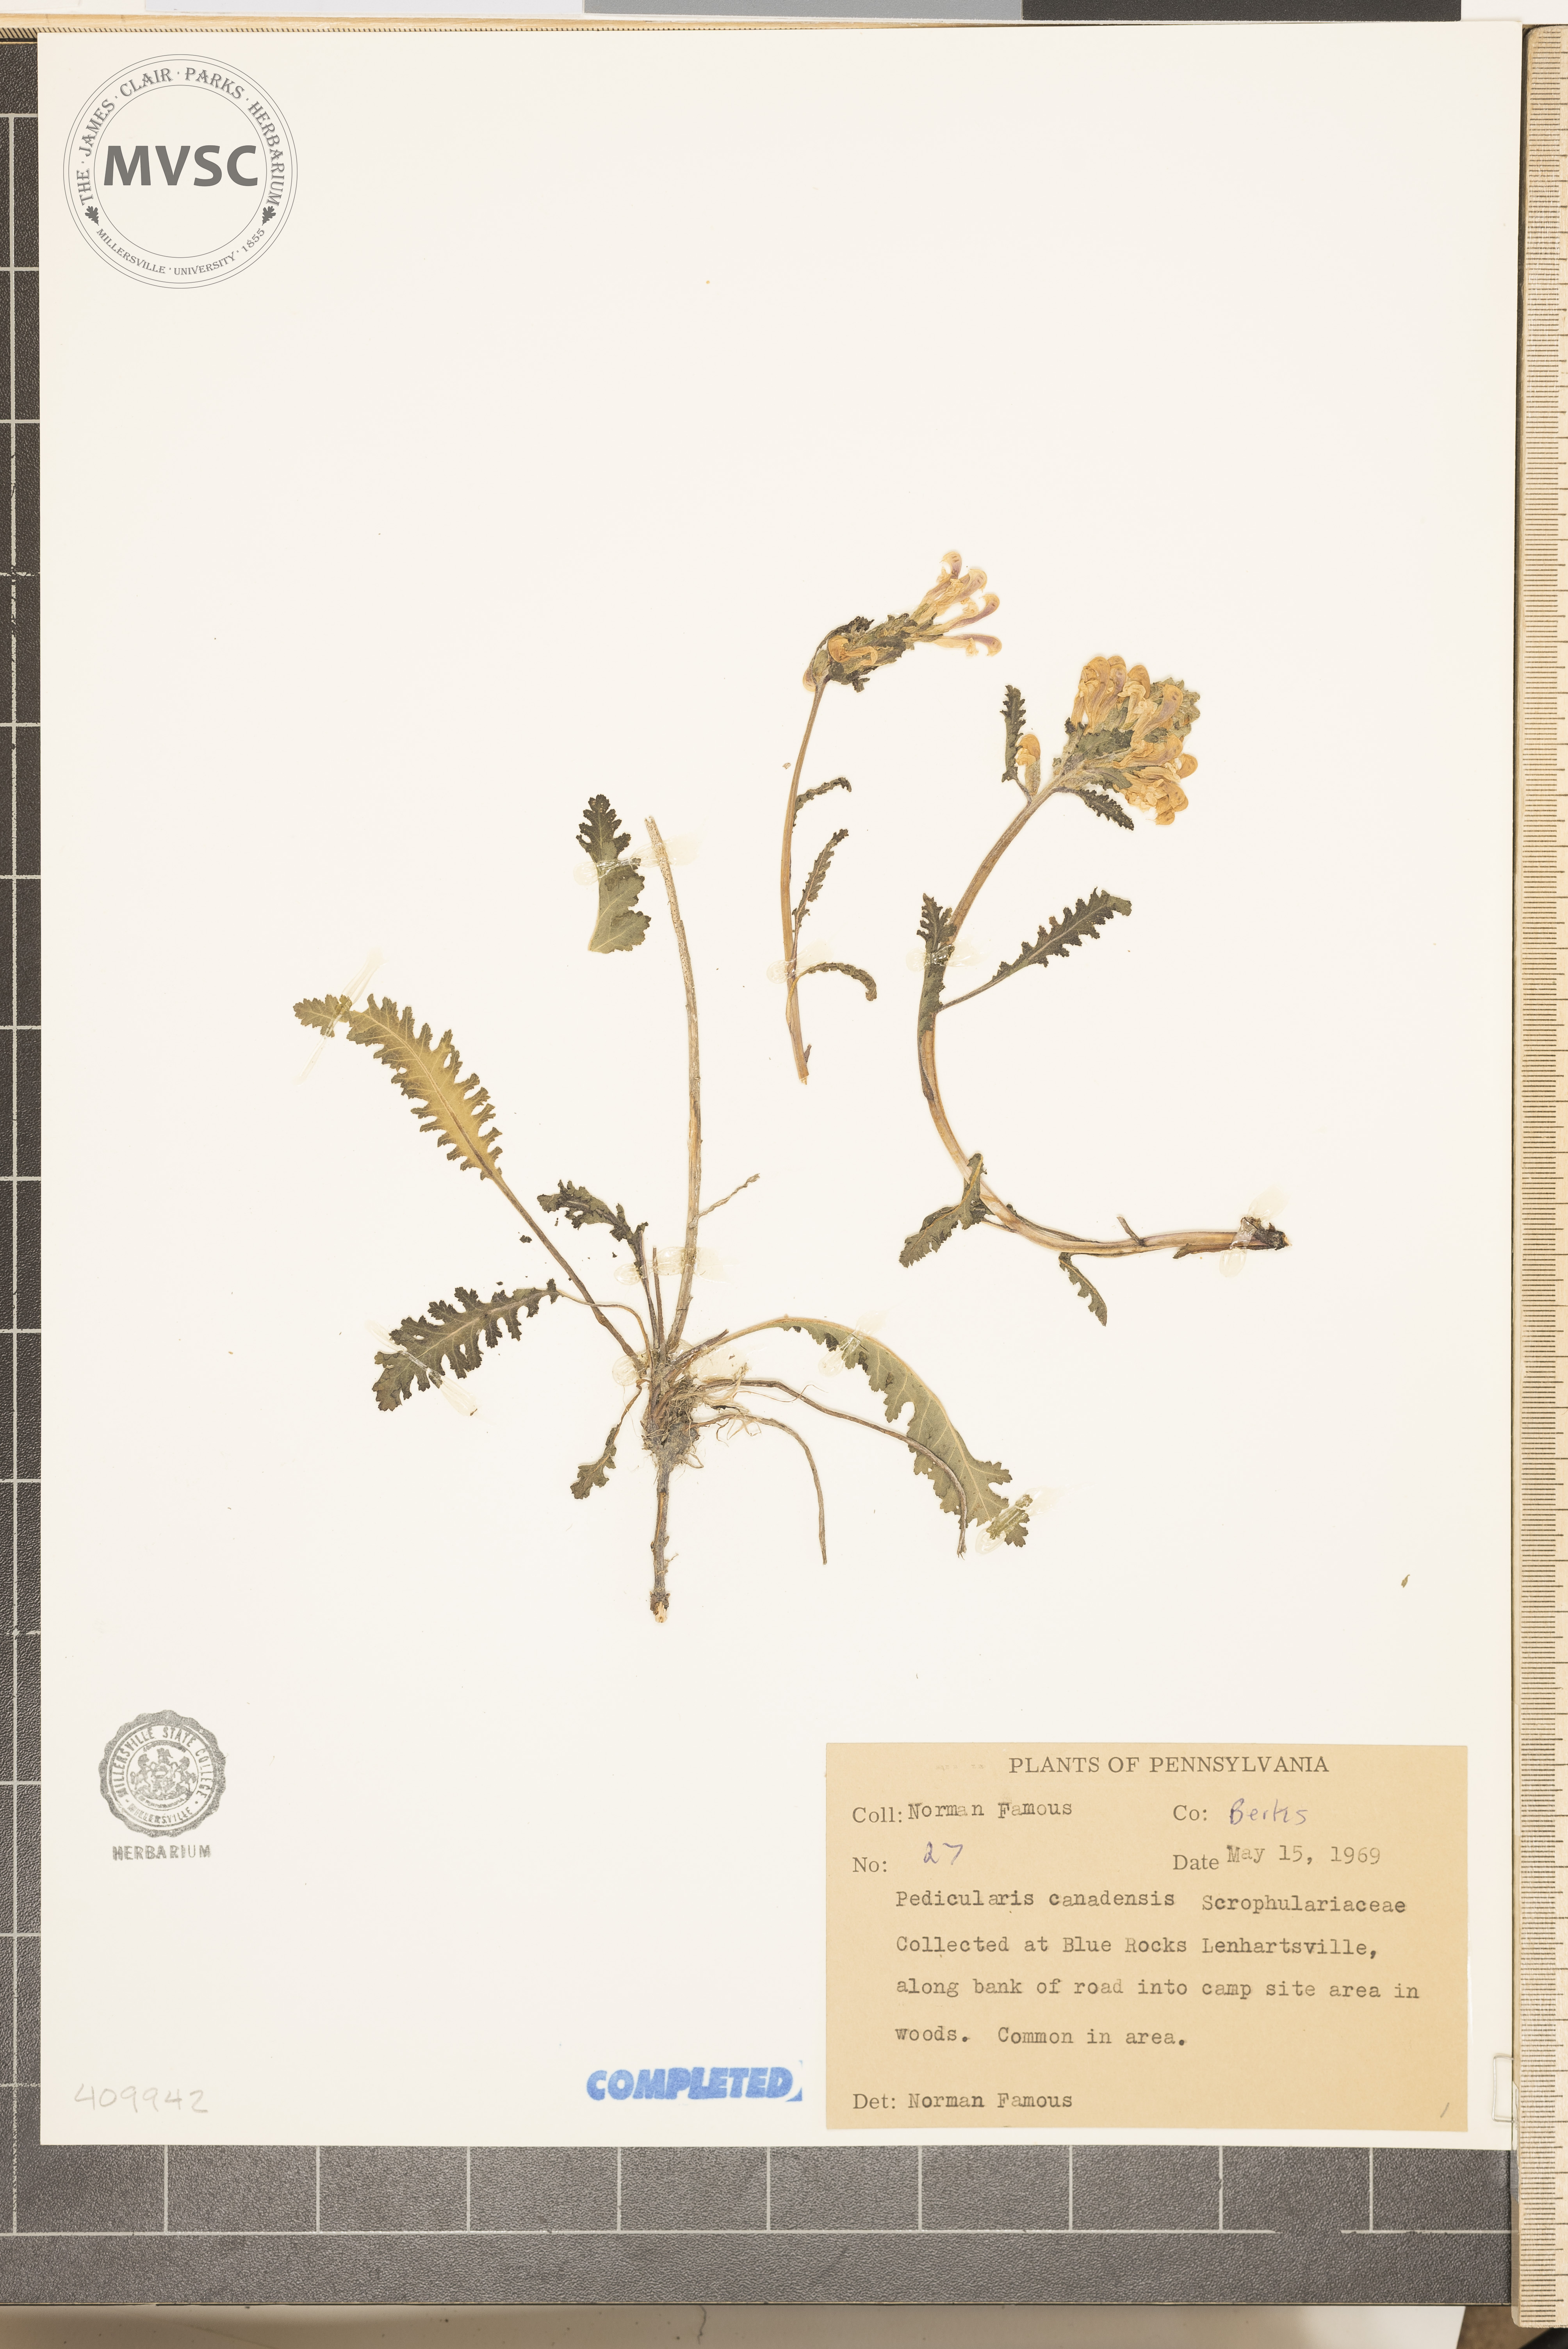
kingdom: Plantae
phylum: Tracheophyta
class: Magnoliopsida
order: Lamiales
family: Orobanchaceae
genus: Pedicularis
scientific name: Pedicularis canadensis
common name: Early lousewort
